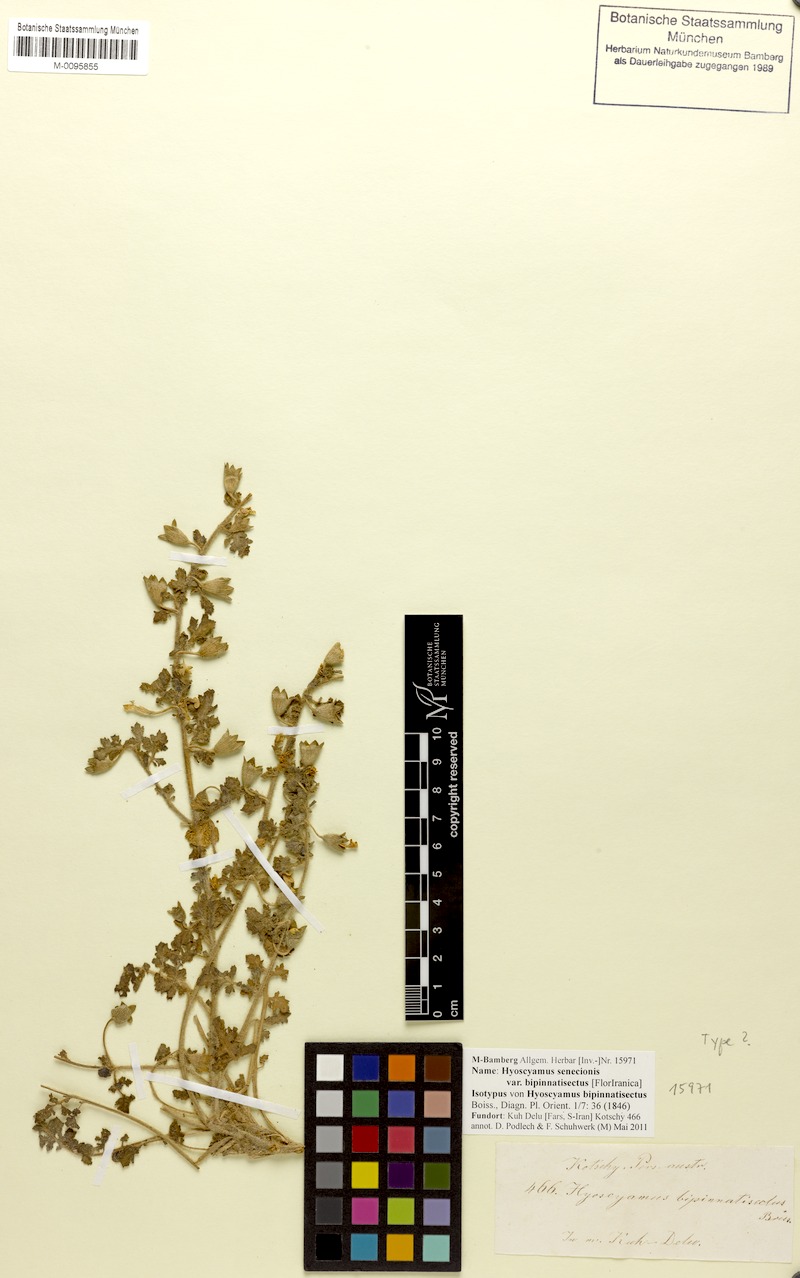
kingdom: Plantae
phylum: Tracheophyta
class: Magnoliopsida
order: Solanales
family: Solanaceae
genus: Hyoscyamus
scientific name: Hyoscyamus senecionis
